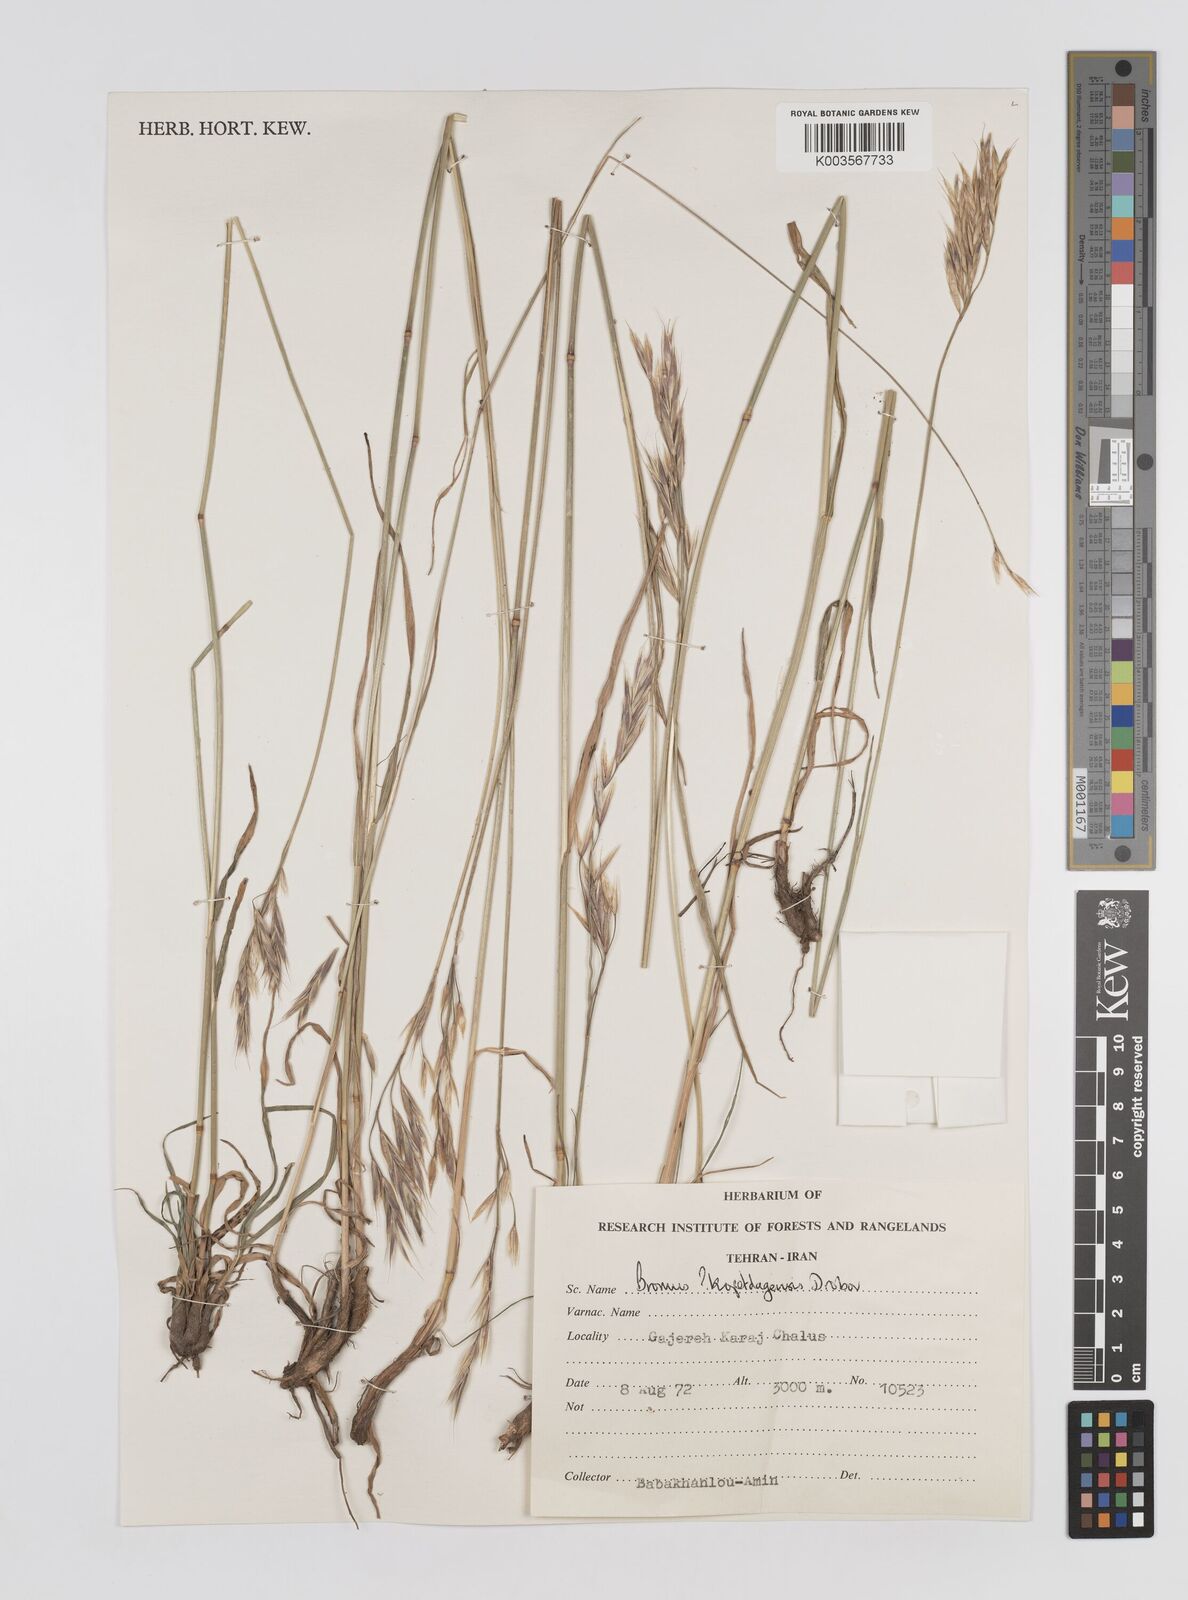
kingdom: Plantae
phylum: Tracheophyta
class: Liliopsida
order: Poales
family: Poaceae
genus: Bromus
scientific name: Bromus
